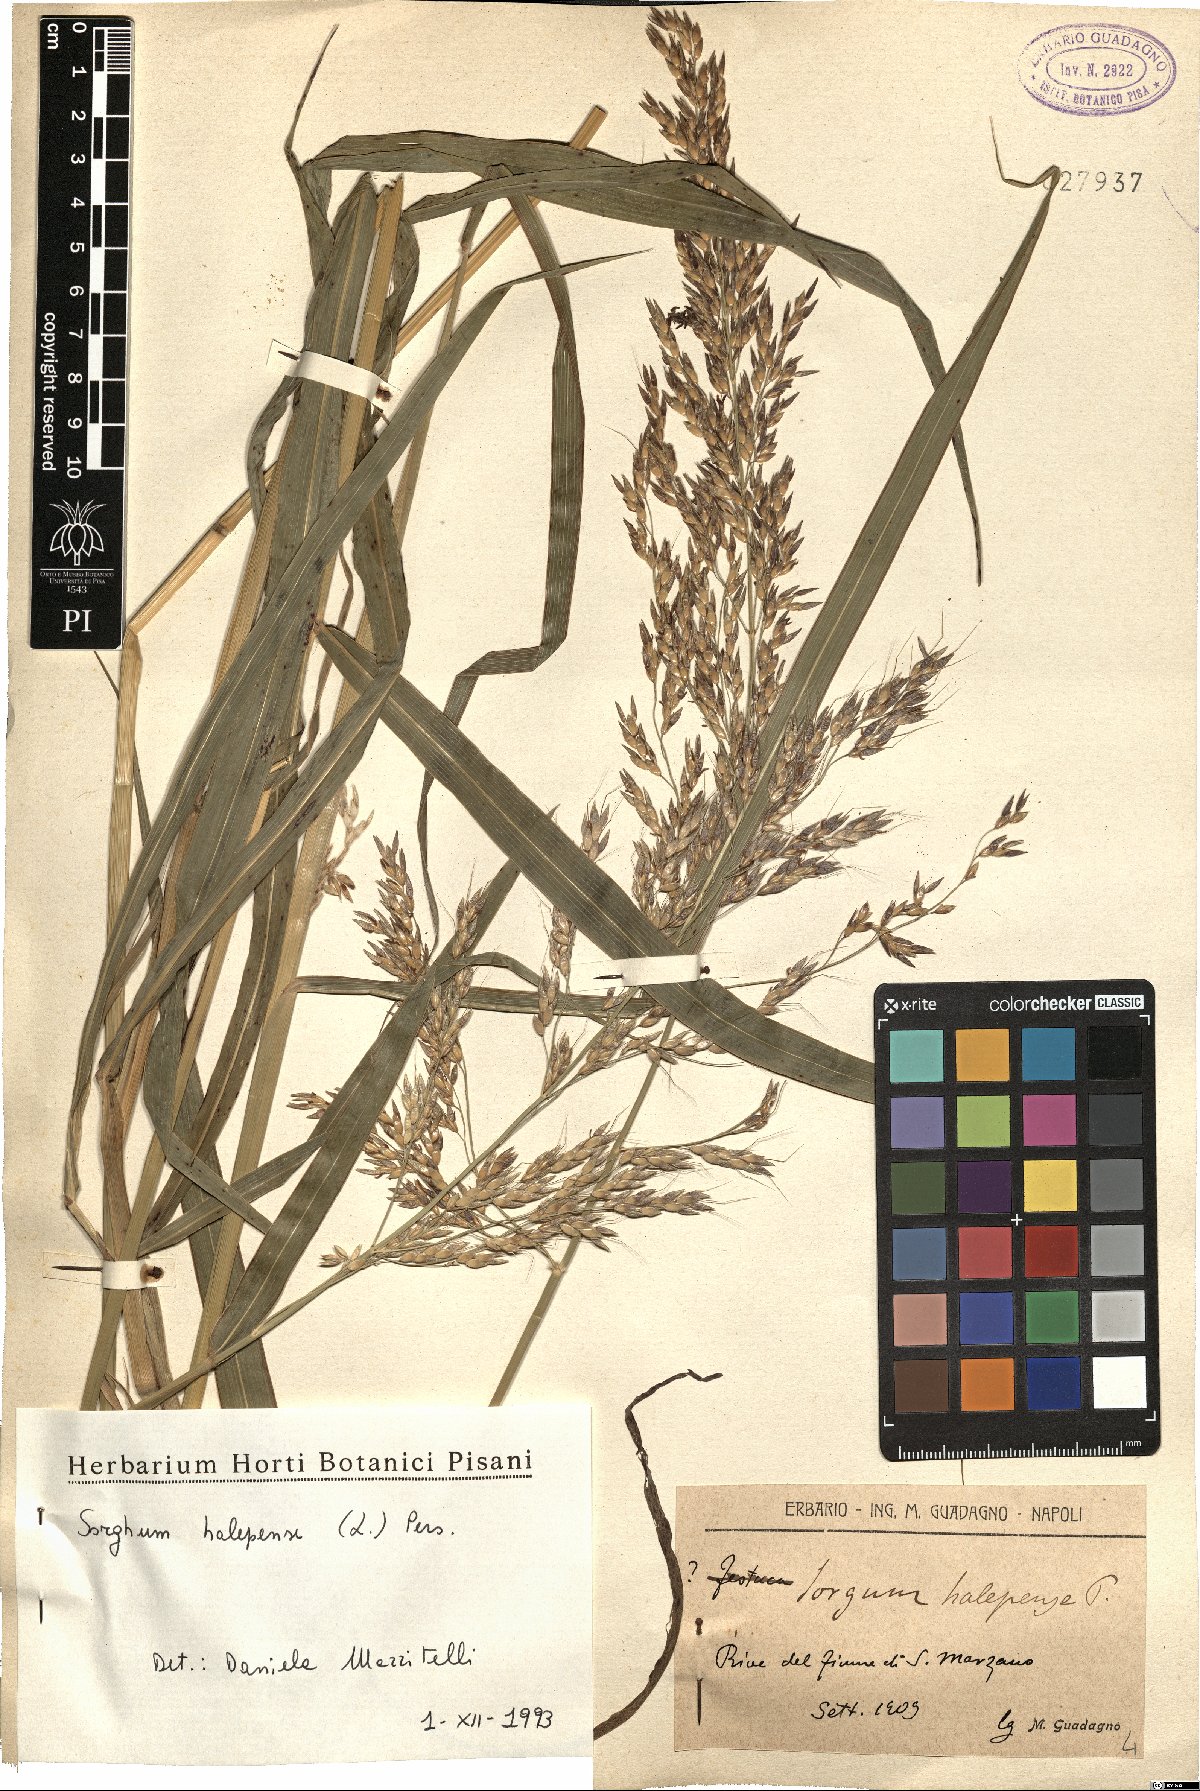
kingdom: Plantae
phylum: Tracheophyta
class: Liliopsida
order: Poales
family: Poaceae
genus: Sorghum
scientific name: Sorghum halepense
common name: Johnson-grass
